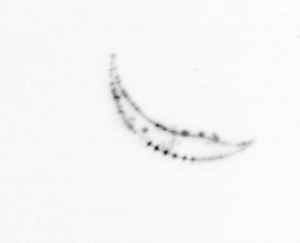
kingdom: Chromista
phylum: Ochrophyta
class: Bacillariophyceae
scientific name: Bacillariophyceae
